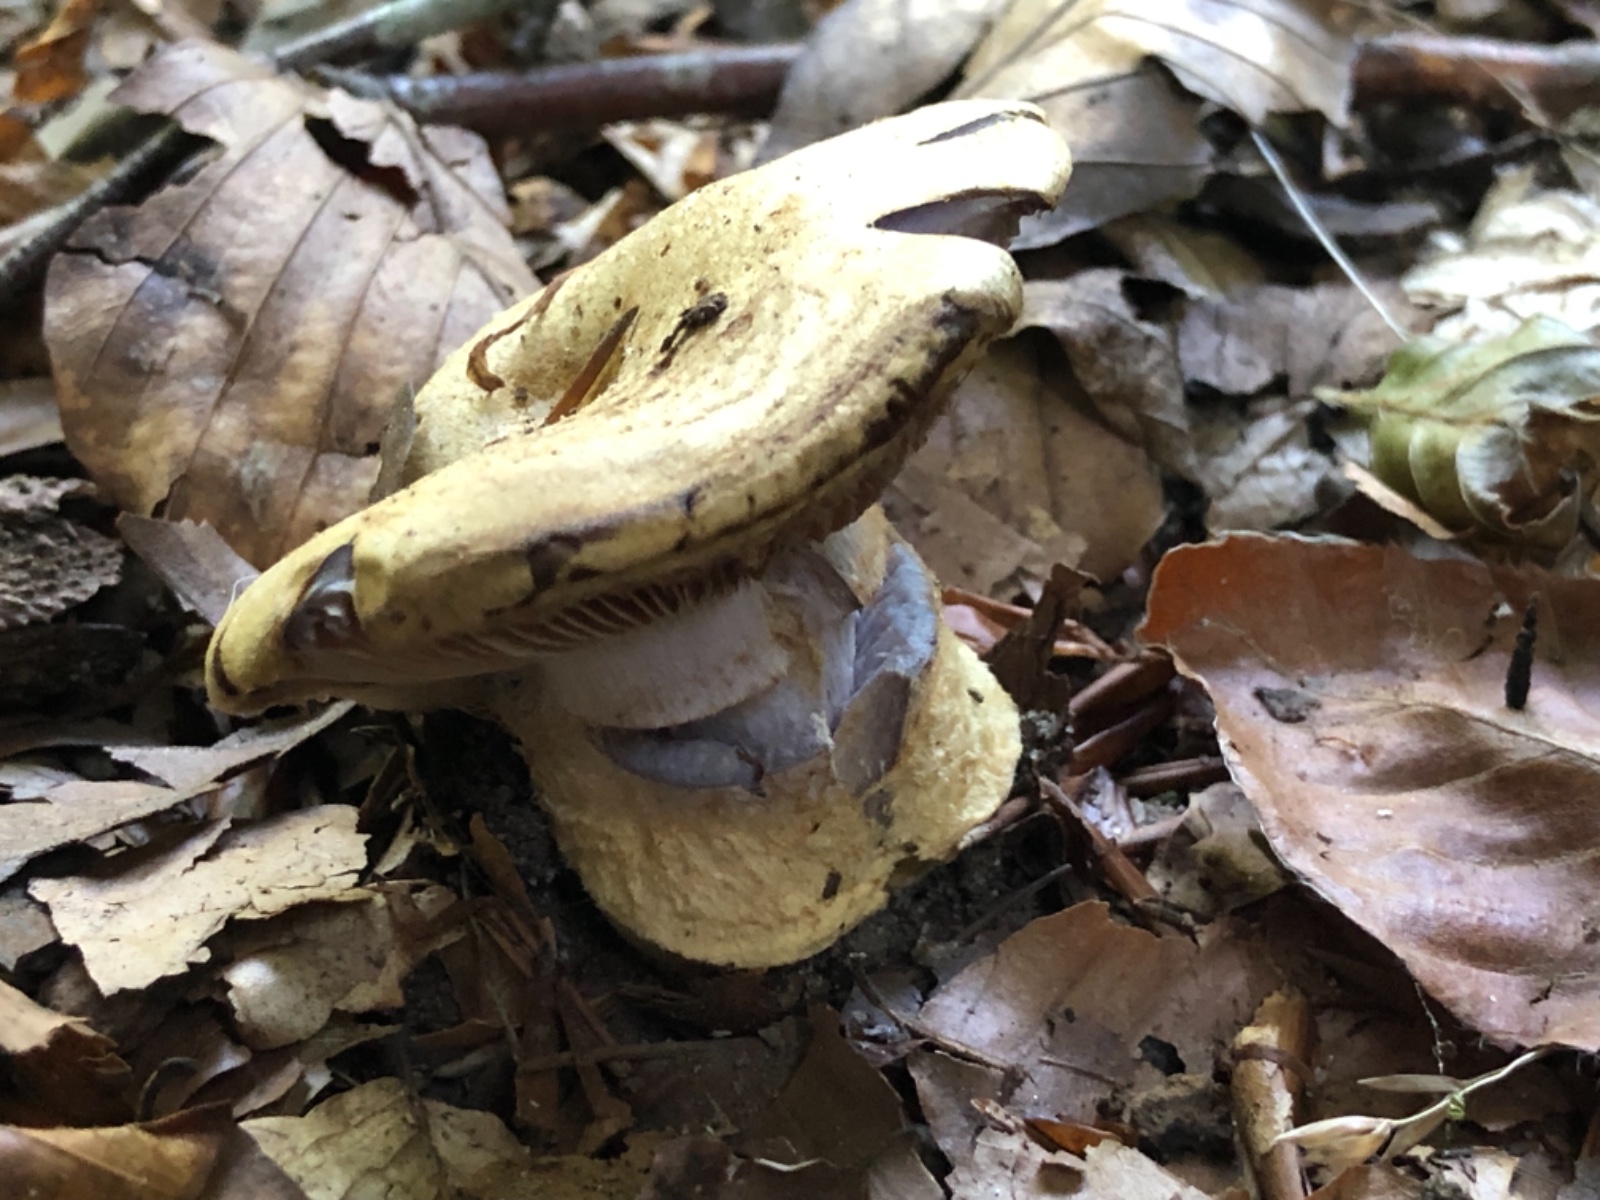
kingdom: Fungi
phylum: Basidiomycota
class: Agaricomycetes
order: Agaricales
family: Cortinariaceae
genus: Cortinarius
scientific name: Cortinarius anserinus
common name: bøge-slørhat
